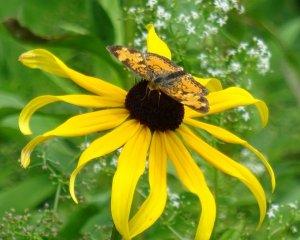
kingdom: Animalia
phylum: Arthropoda
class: Insecta
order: Lepidoptera
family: Nymphalidae
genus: Phyciodes
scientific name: Phyciodes tharos
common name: Northern Crescent
